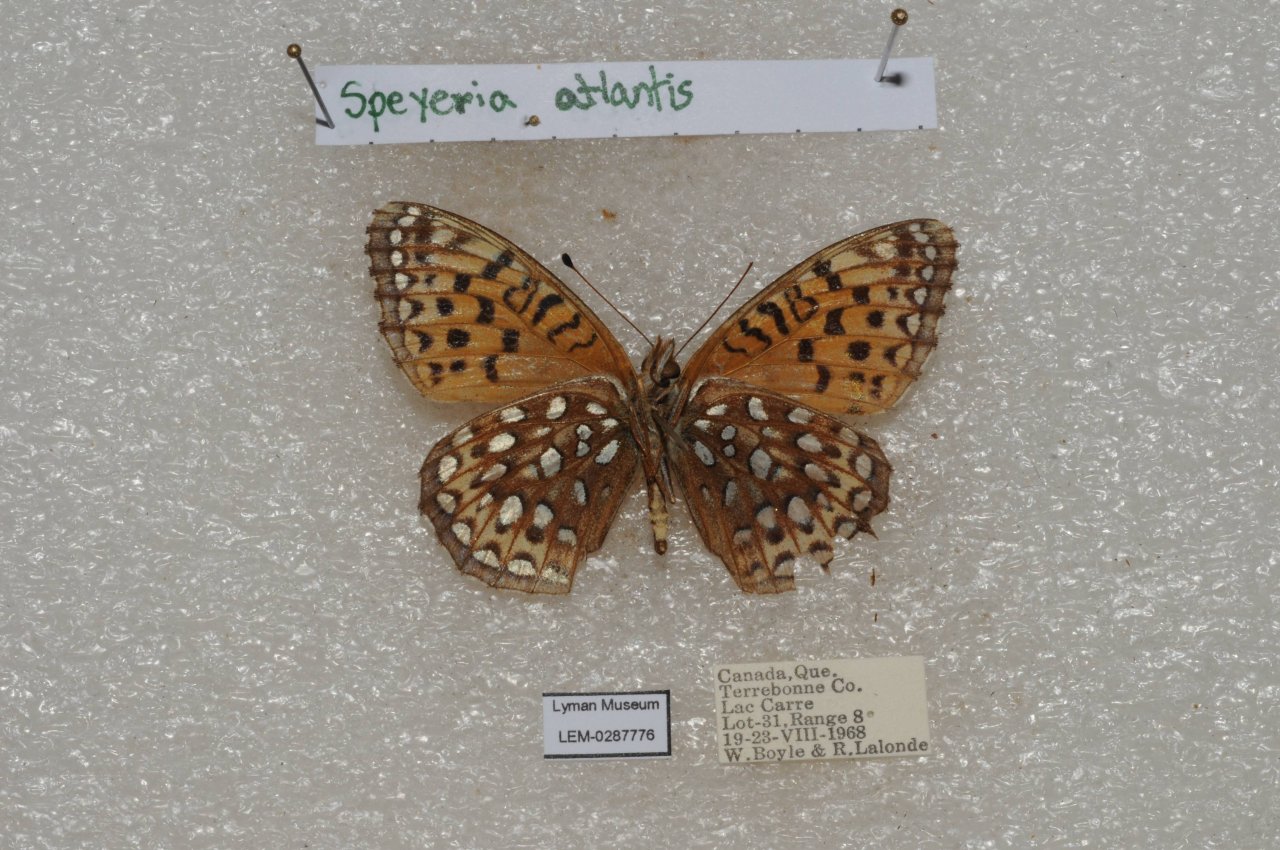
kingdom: Animalia
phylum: Arthropoda
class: Insecta
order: Lepidoptera
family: Nymphalidae
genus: Speyeria
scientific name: Speyeria atlantis
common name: Atlantis Fritillary
